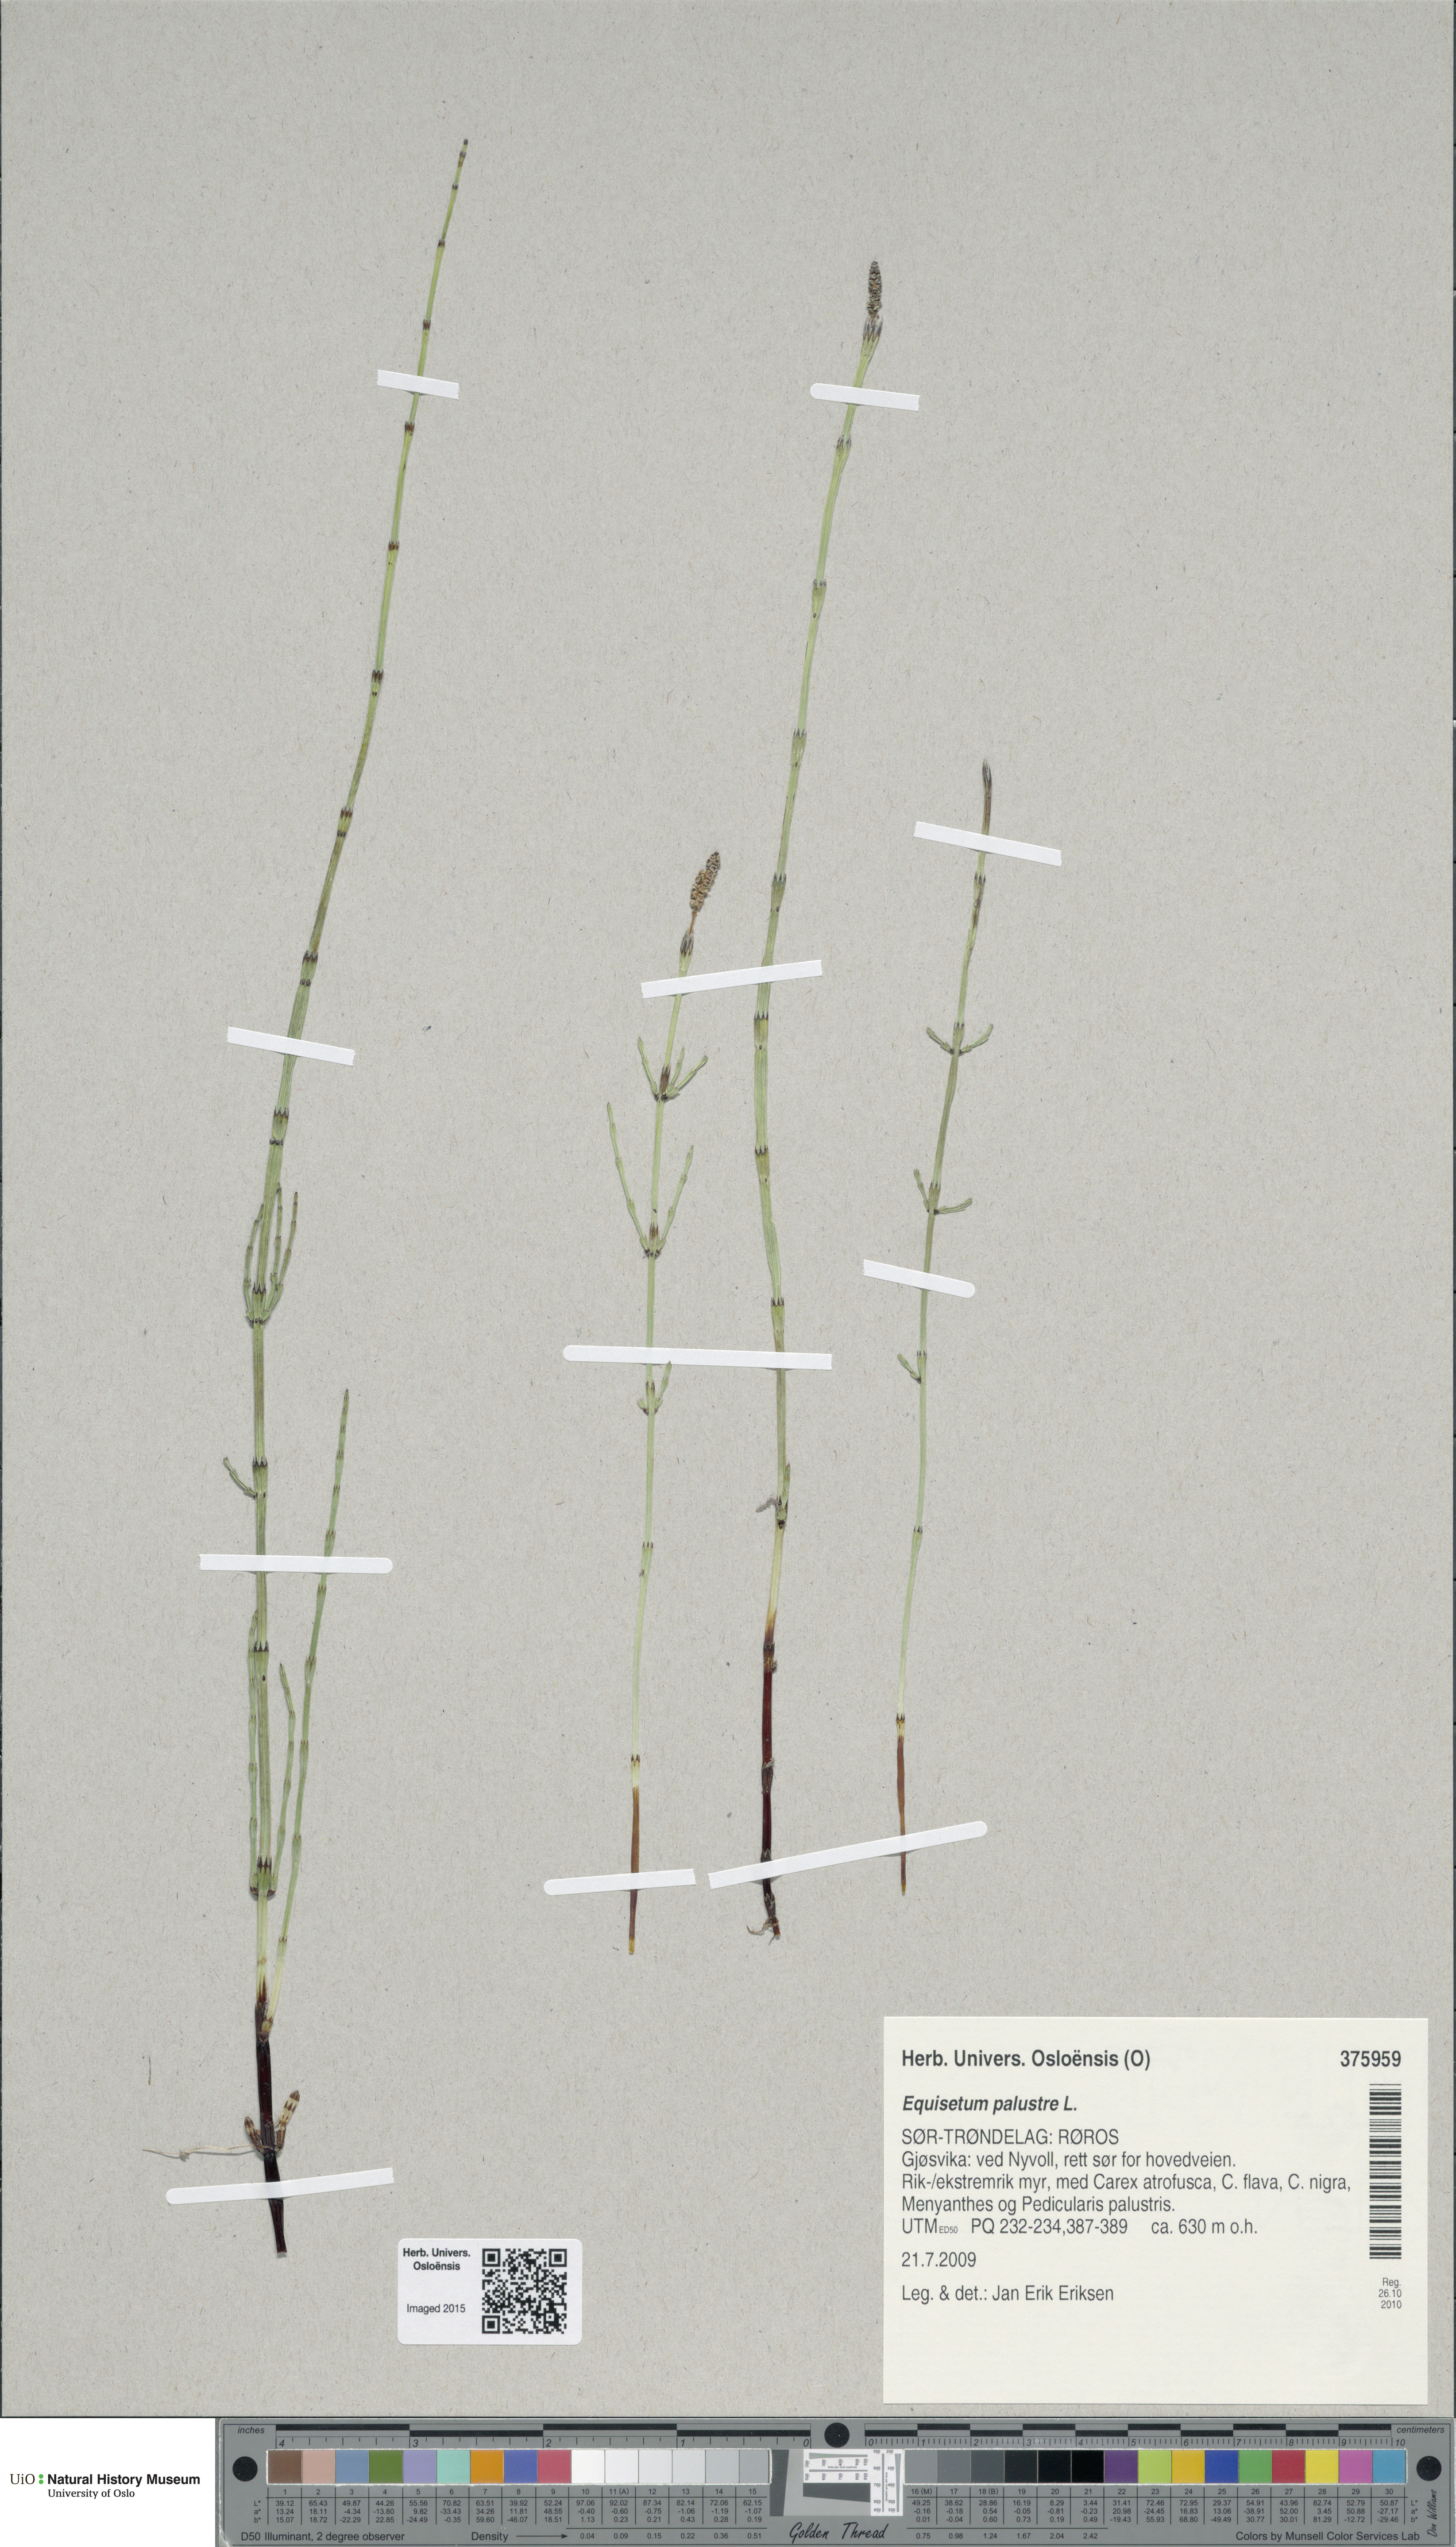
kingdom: Plantae
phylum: Tracheophyta
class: Polypodiopsida
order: Equisetales
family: Equisetaceae
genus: Equisetum
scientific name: Equisetum palustre
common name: Marsh horsetail
